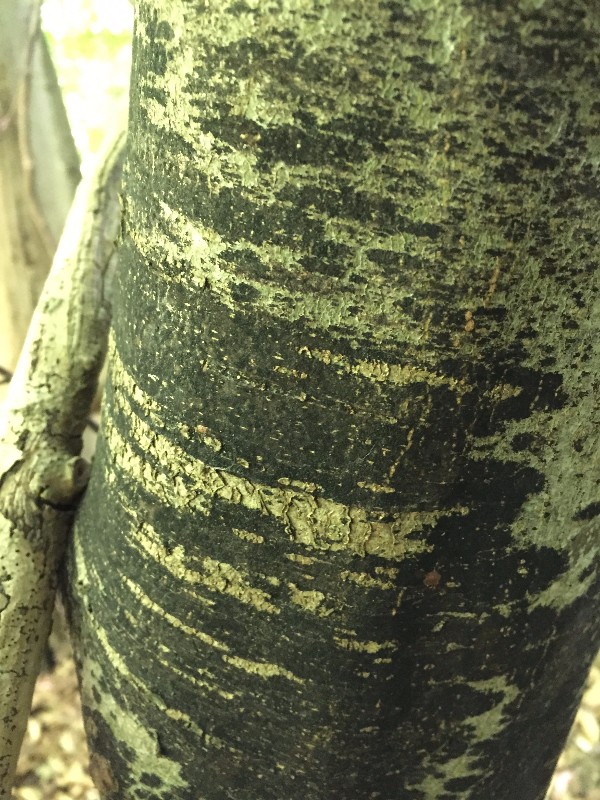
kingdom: Fungi
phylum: Ascomycota
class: Leotiomycetes
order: Rhytismatales
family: Ascodichaenaceae
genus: Ascodichaena
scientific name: Ascodichaena rugosa
